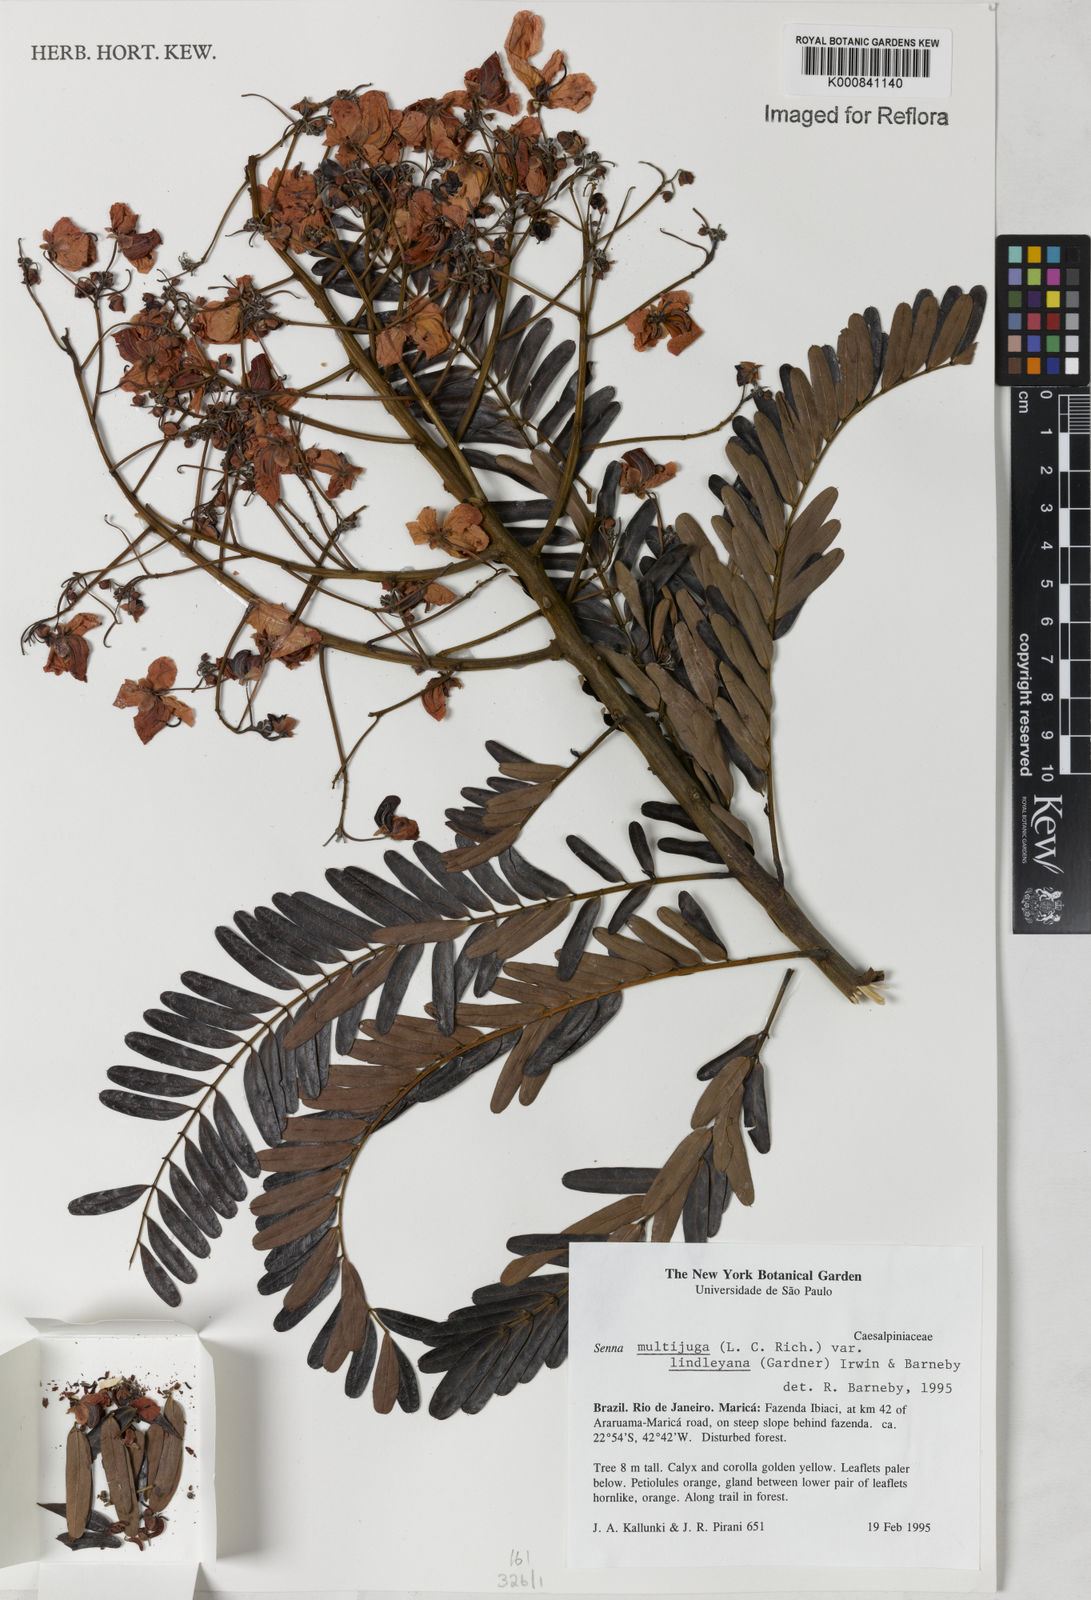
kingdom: Plantae
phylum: Tracheophyta
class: Magnoliopsida
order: Fabales
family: Fabaceae
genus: Senna
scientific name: Senna multijuga
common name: False sicklepod
